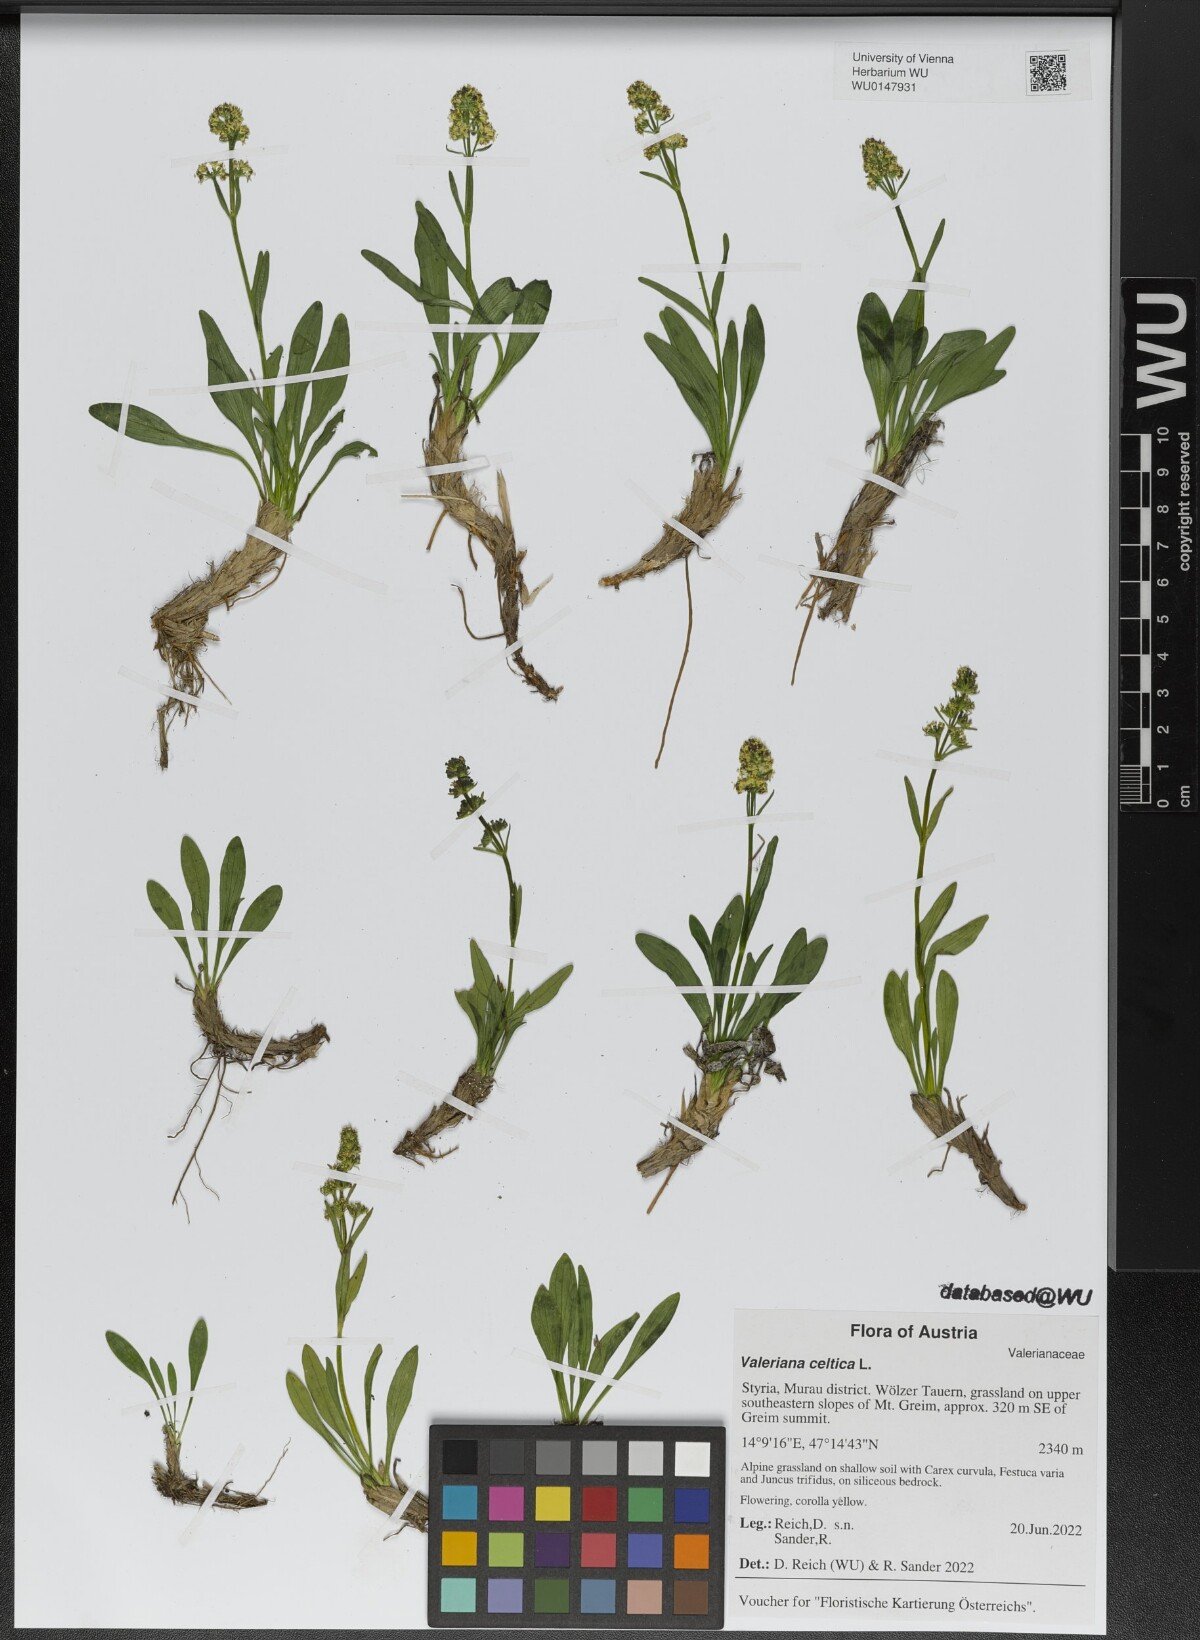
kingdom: Plantae
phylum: Tracheophyta
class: Magnoliopsida
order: Dipsacales
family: Caprifoliaceae
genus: Valeriana
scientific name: Valeriana celtica
